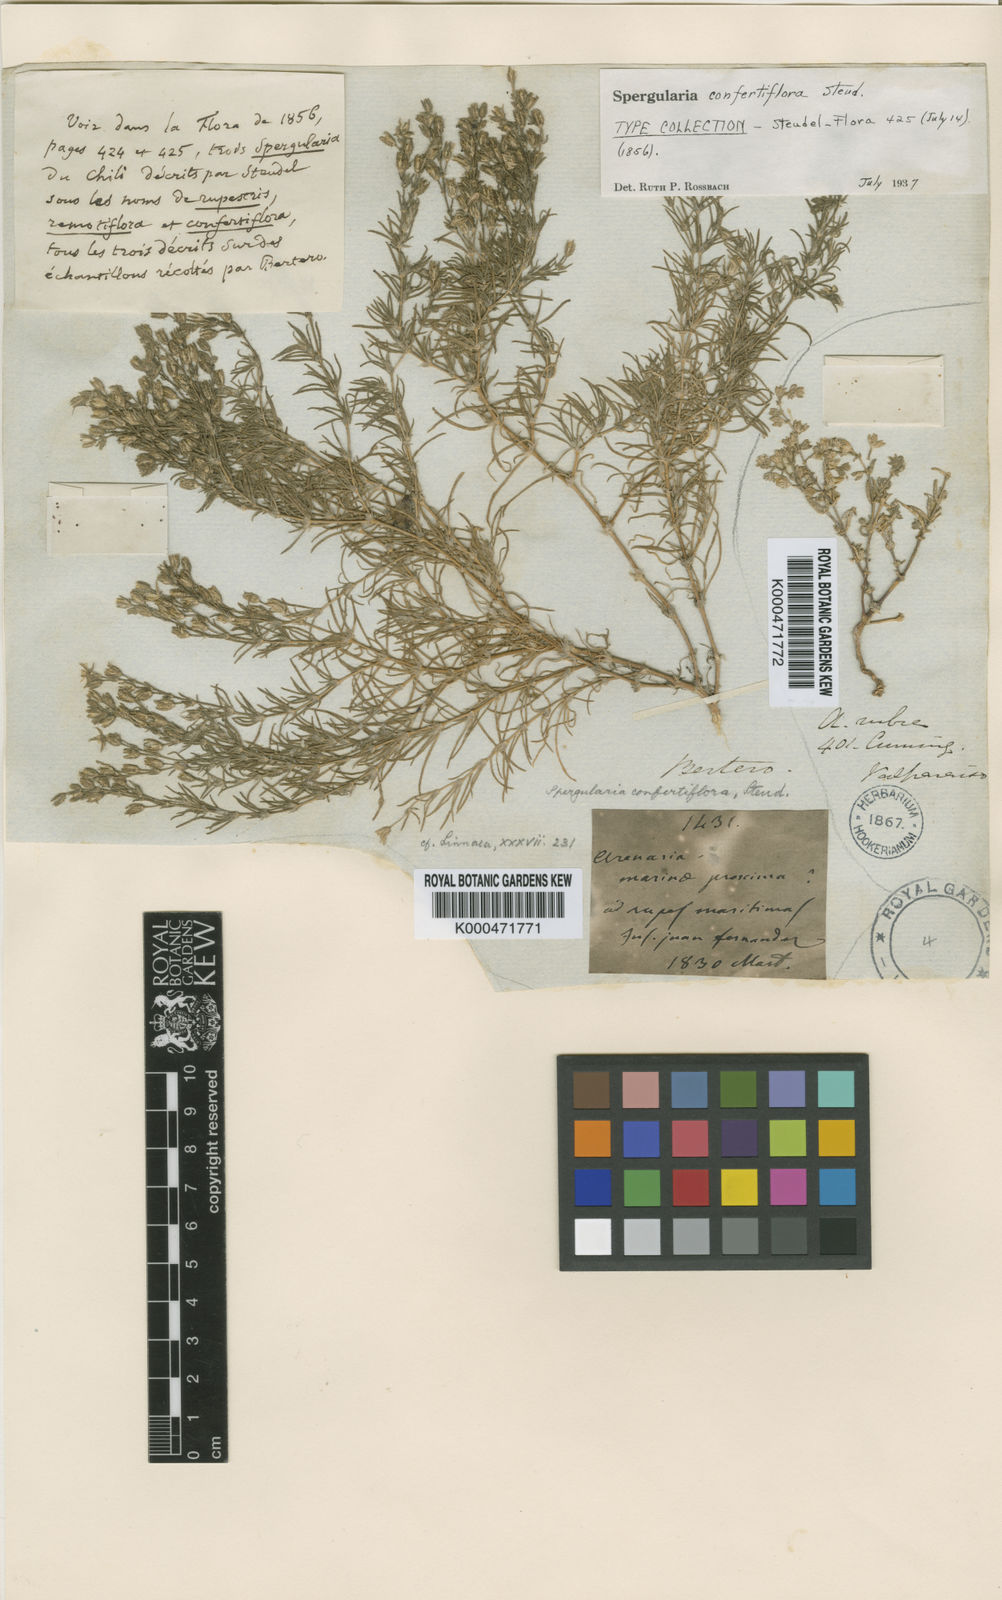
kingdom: Plantae
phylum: Tracheophyta
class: Magnoliopsida
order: Caryophyllales
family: Caryophyllaceae
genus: Spergularia
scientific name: Spergularia confertiflora
